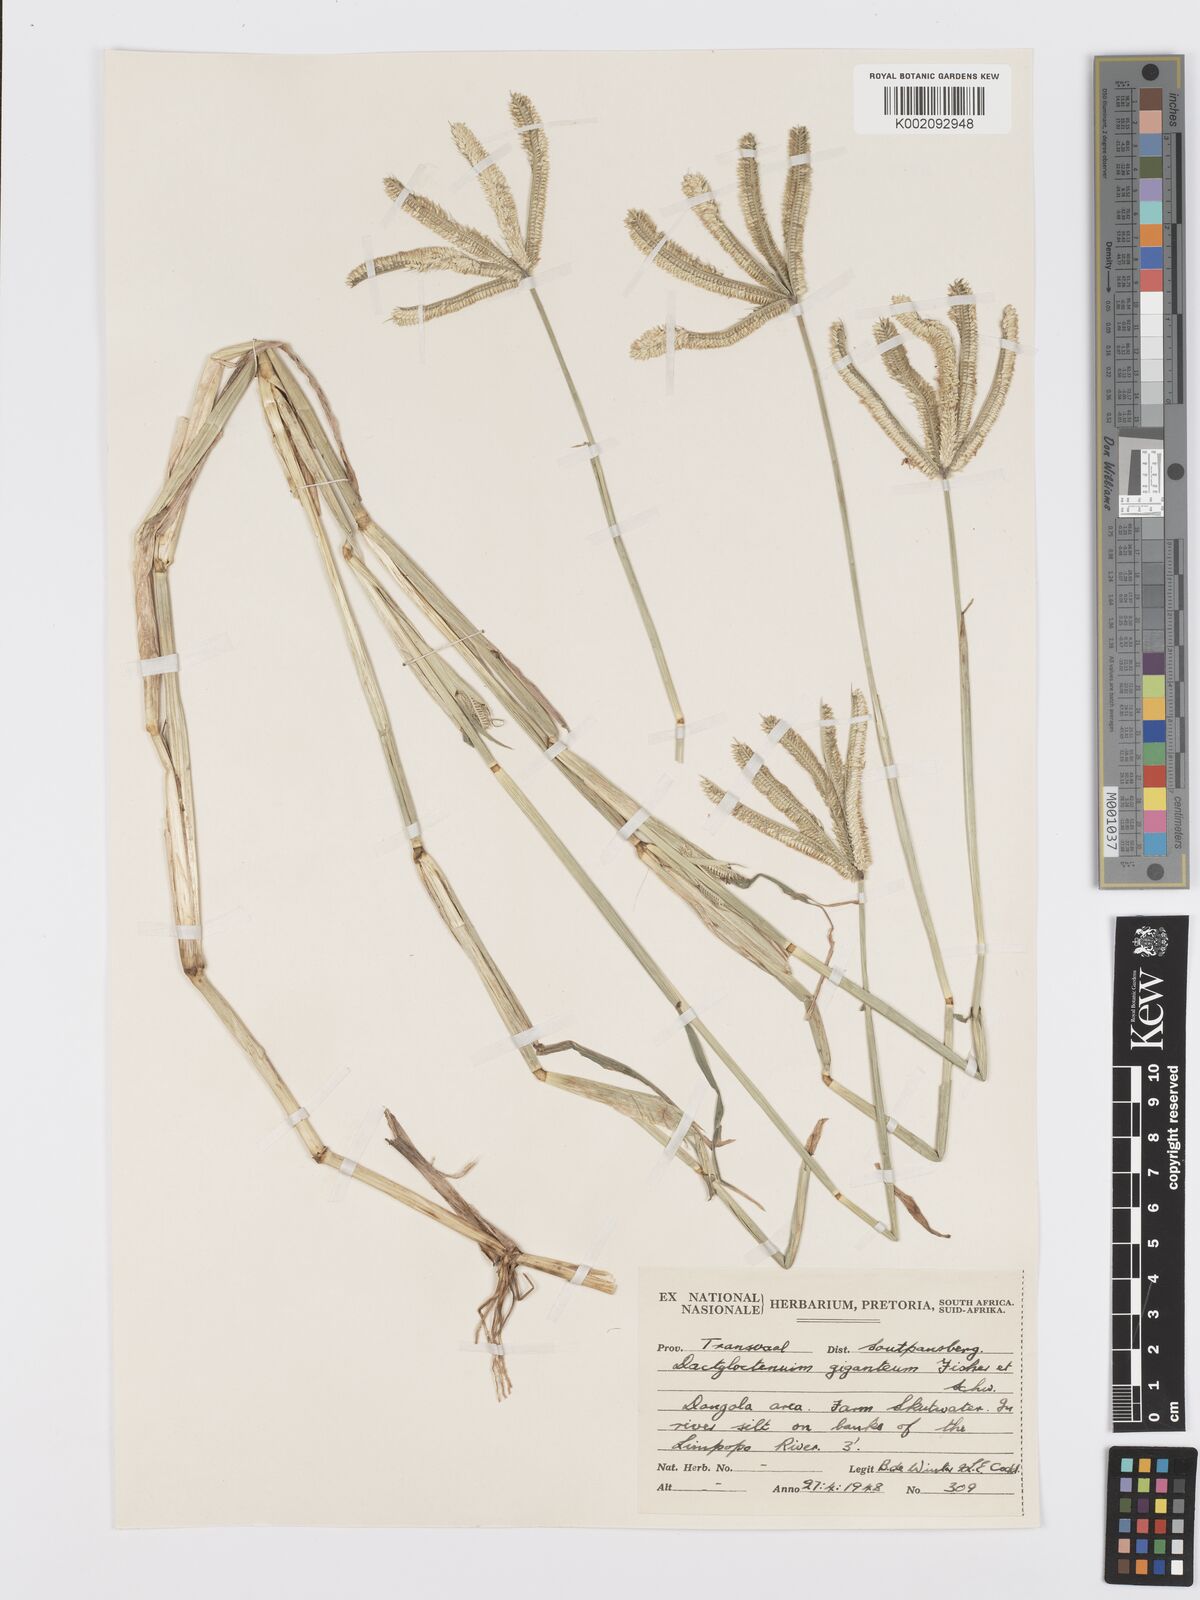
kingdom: Plantae
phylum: Tracheophyta
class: Liliopsida
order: Poales
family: Poaceae
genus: Dactyloctenium
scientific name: Dactyloctenium giganteum
